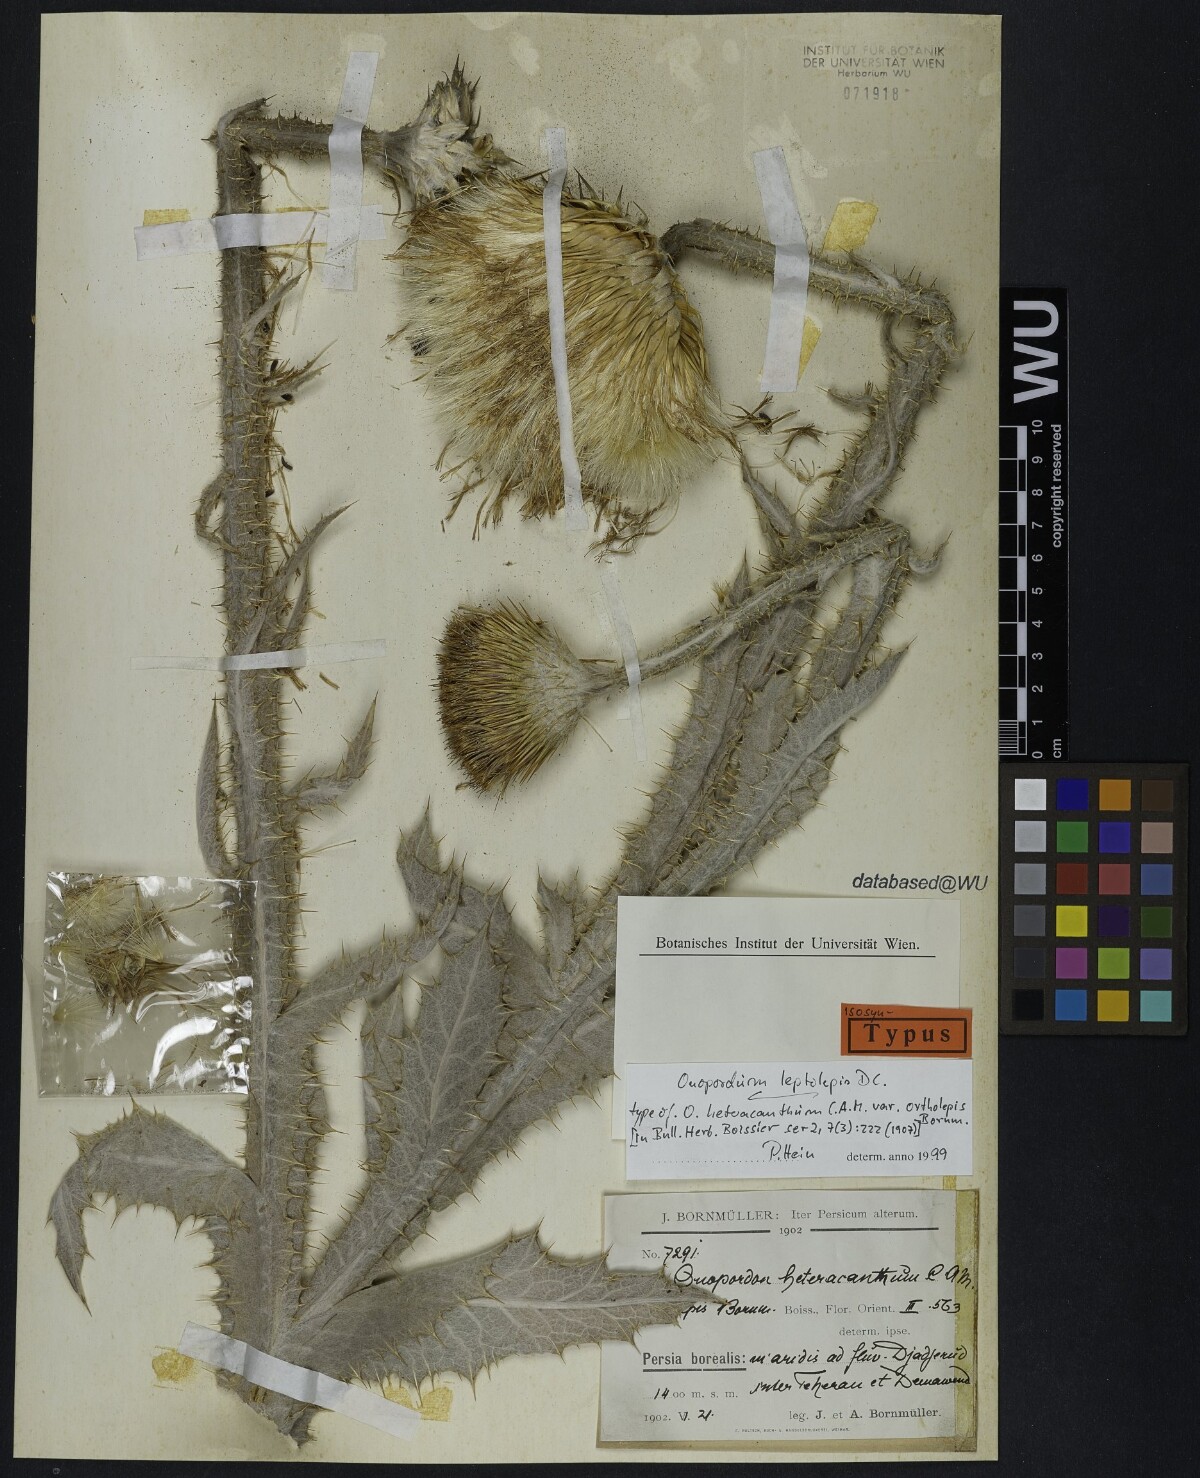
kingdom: Plantae
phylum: Tracheophyta
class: Magnoliopsida
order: Asterales
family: Asteraceae
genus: Onopordum
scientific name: Onopordum leptolepis
